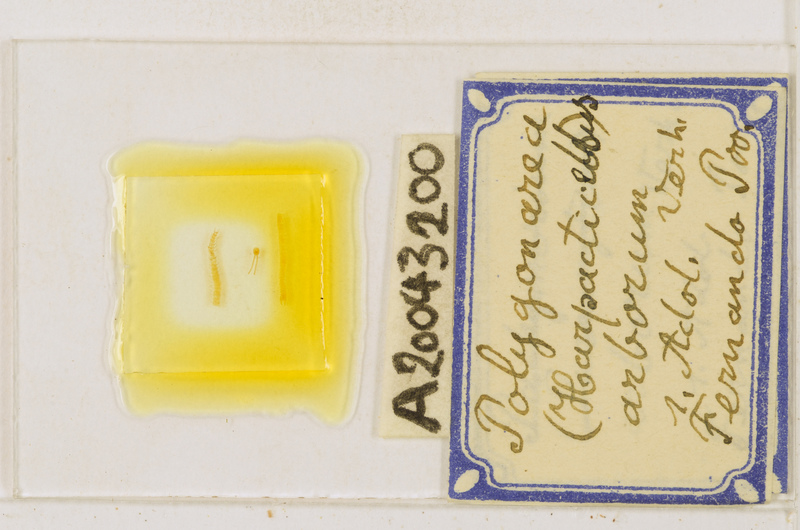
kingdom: Animalia
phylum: Arthropoda
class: Chilopoda
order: Geophilomorpha
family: Geophilidae
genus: Polygonarea
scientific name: Polygonarea
